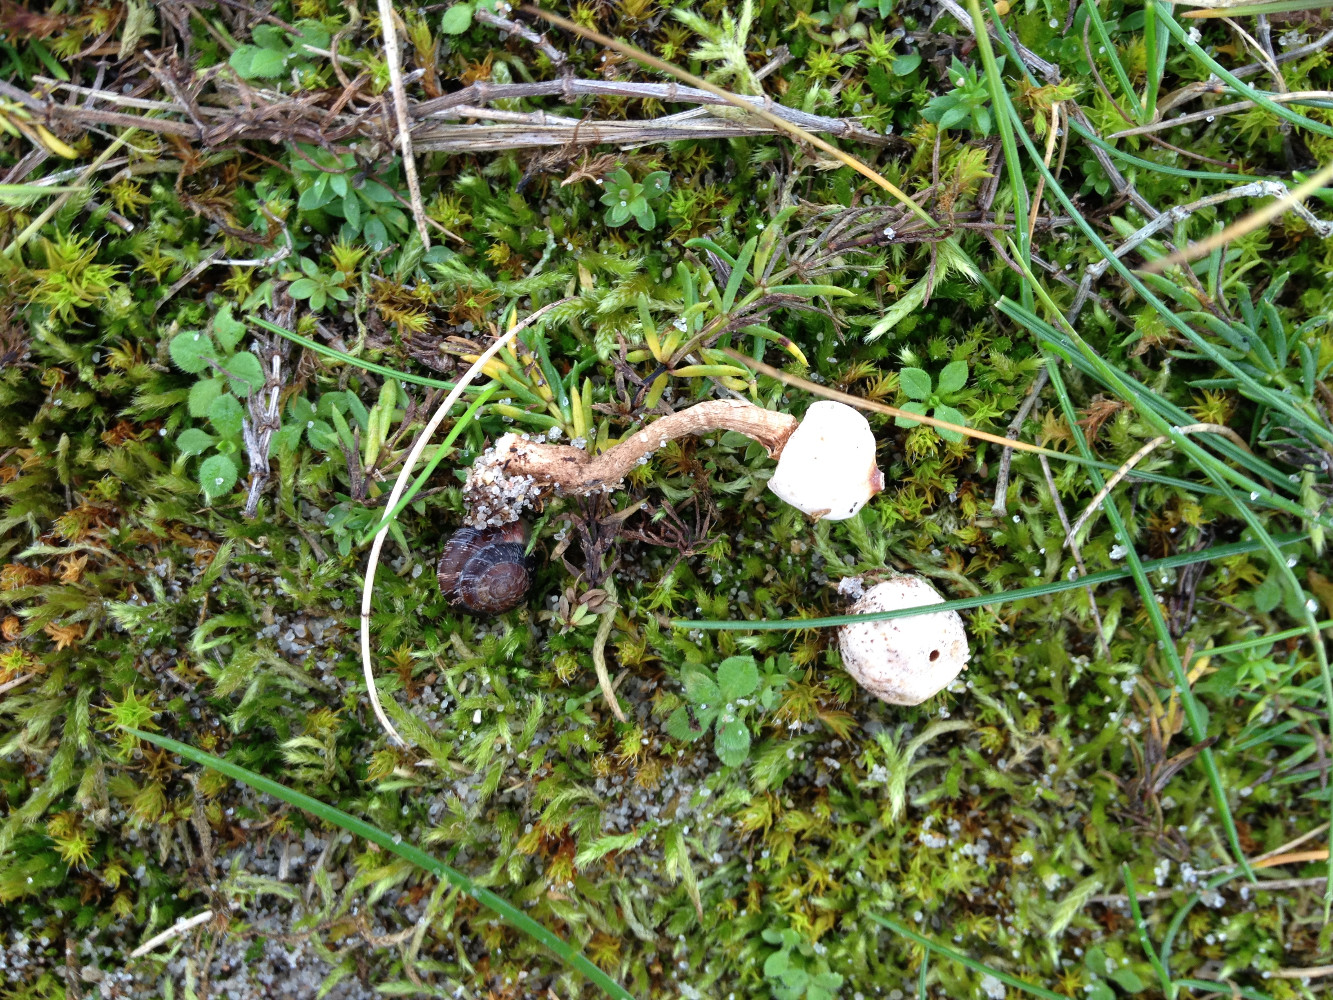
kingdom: Fungi
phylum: Basidiomycota
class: Agaricomycetes
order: Agaricales
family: Agaricaceae
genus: Tulostoma
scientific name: Tulostoma brumale
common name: vinter-stilkbovist
